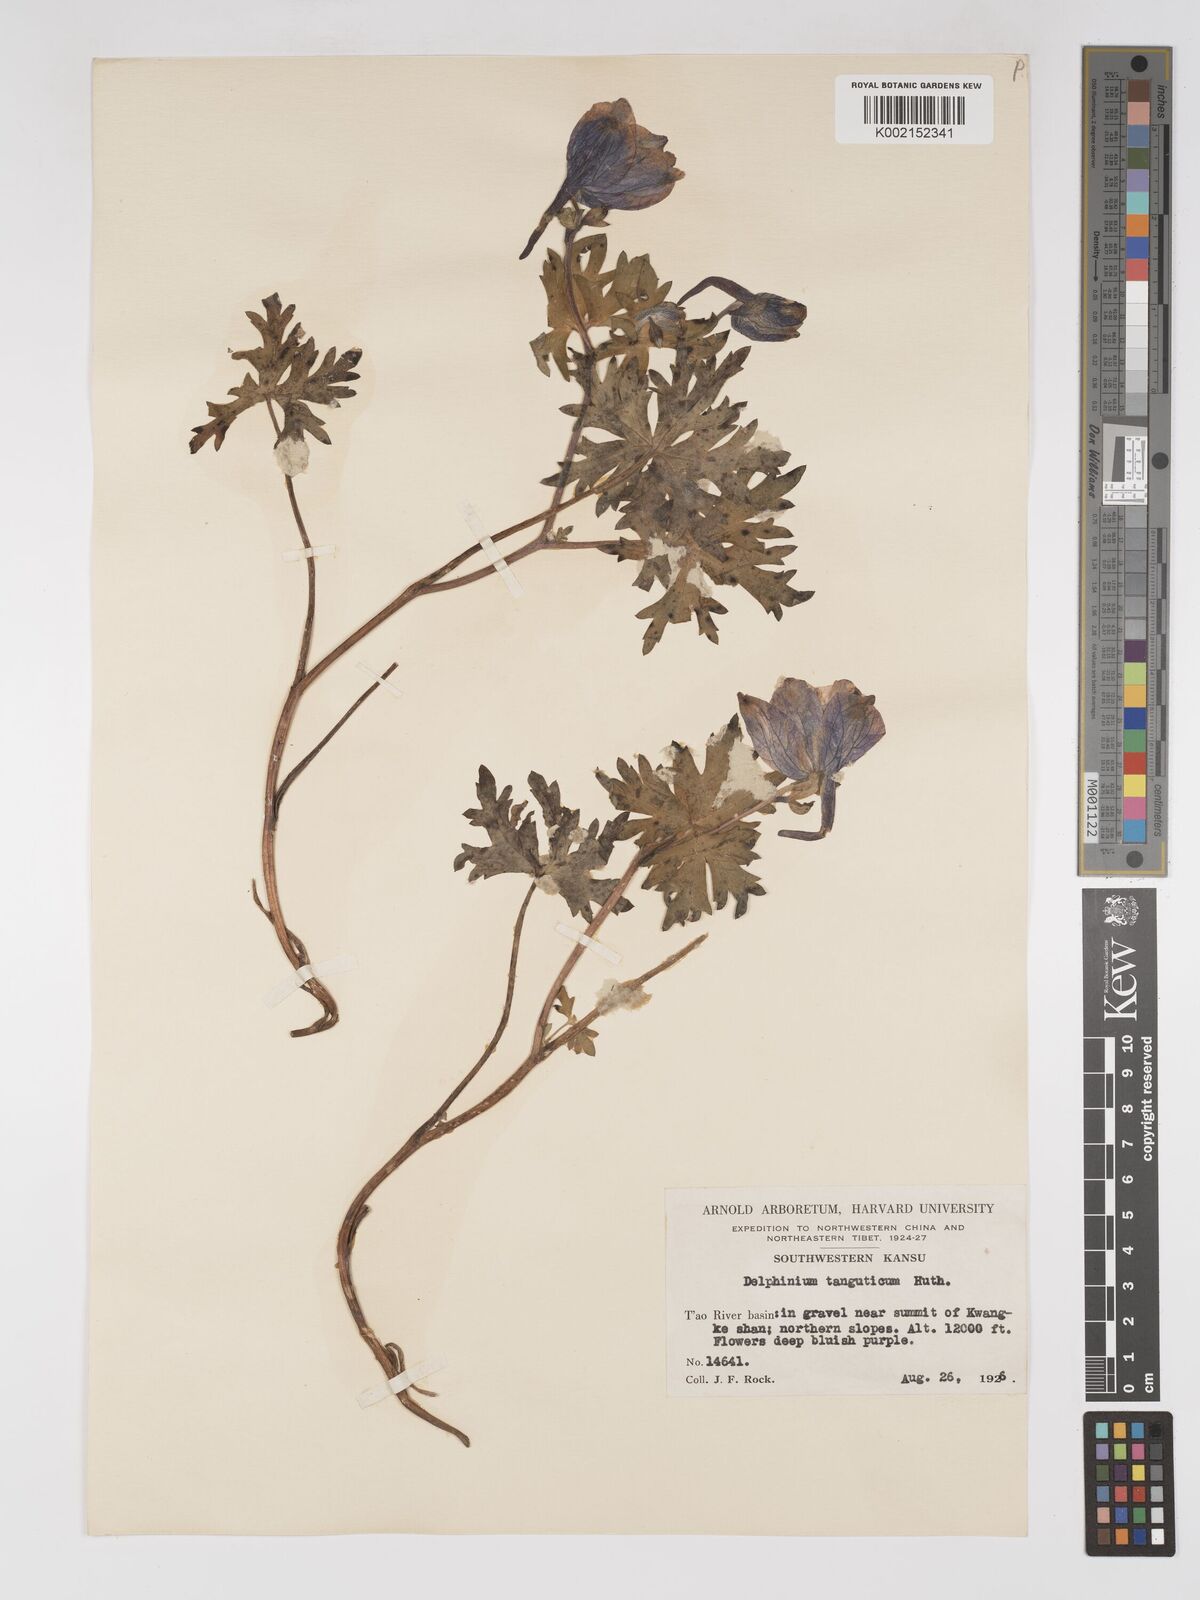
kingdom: Plantae
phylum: Tracheophyta
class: Magnoliopsida
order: Ranunculales
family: Ranunculaceae
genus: Delphinium
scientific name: Delphinium pylzowii
